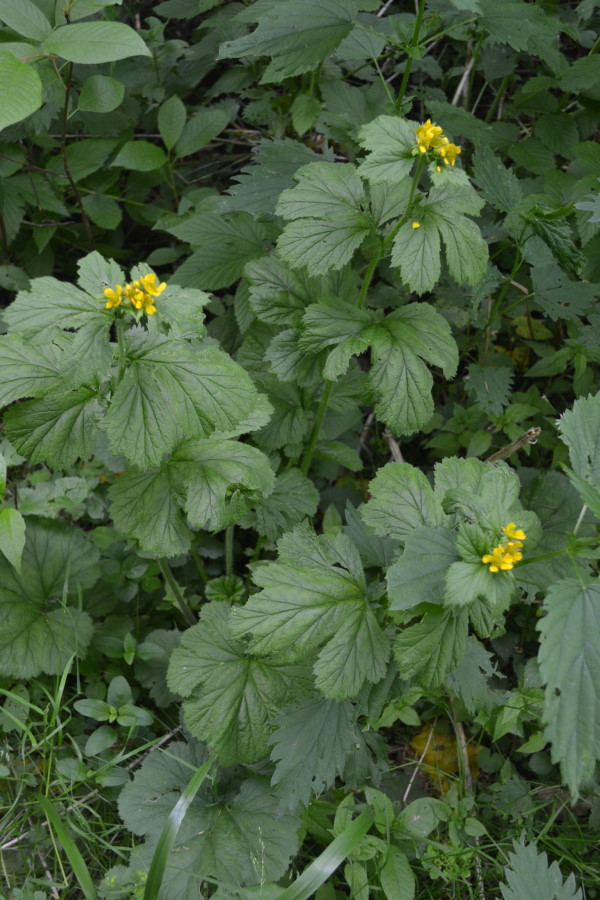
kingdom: Plantae
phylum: Tracheophyta
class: Magnoliopsida
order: Rosales
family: Rosaceae
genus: Geum
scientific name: Geum macrophyllum
